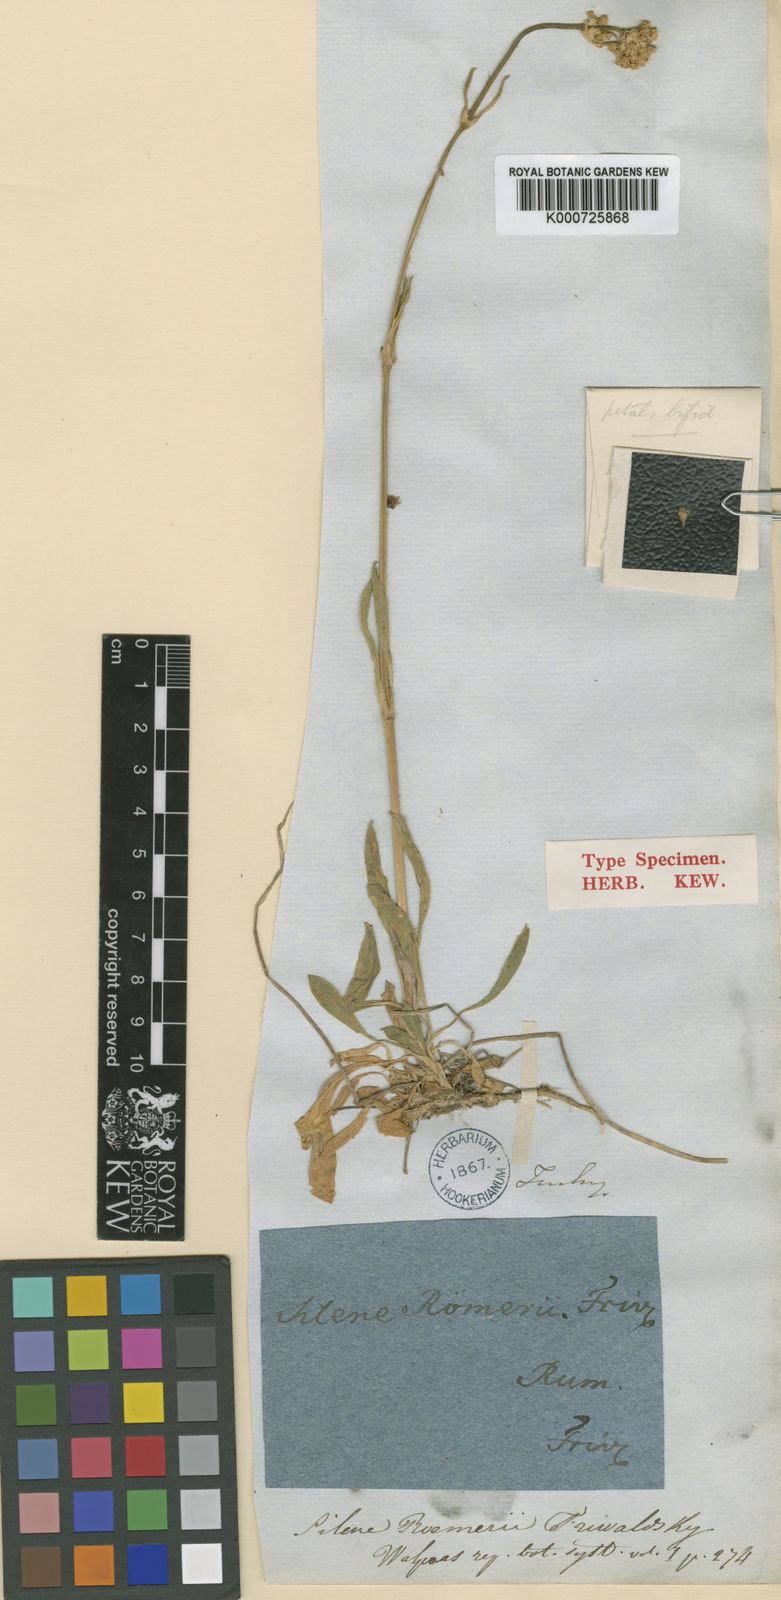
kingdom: Plantae
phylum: Tracheophyta
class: Magnoliopsida
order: Caryophyllales
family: Caryophyllaceae
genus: Silene
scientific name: Silene roemeri
